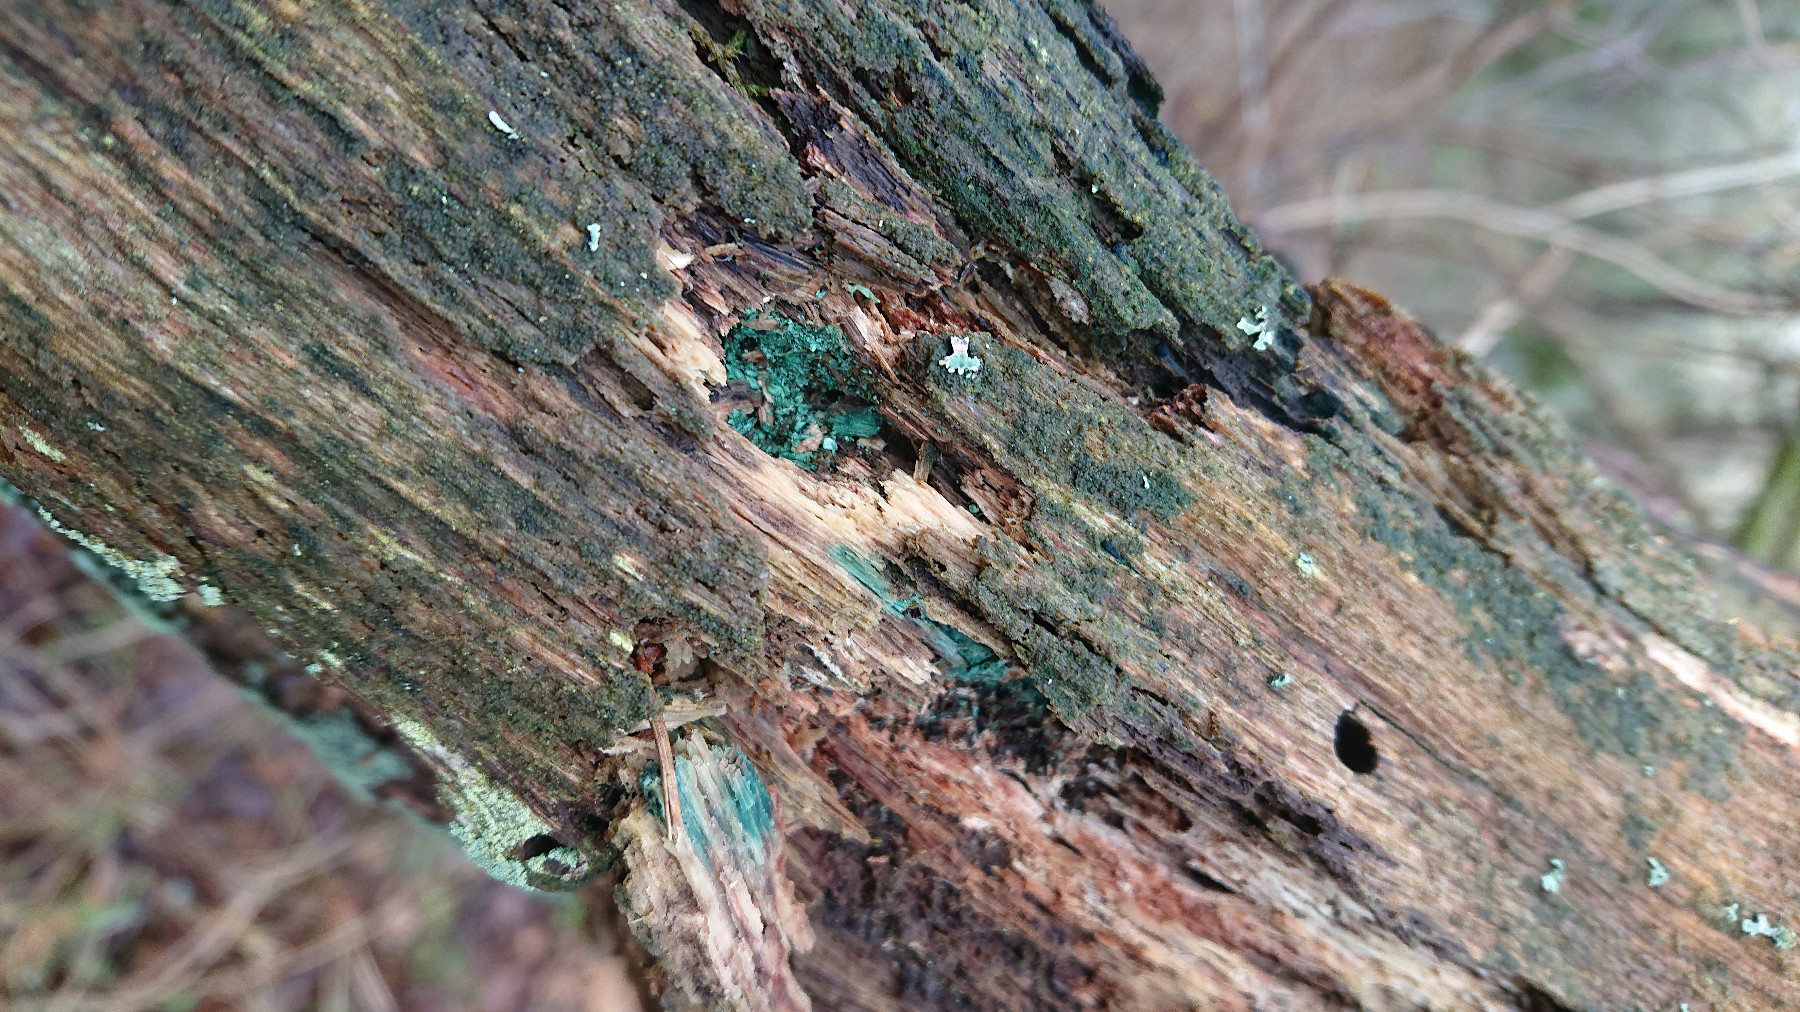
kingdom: Fungi
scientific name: Fungi
